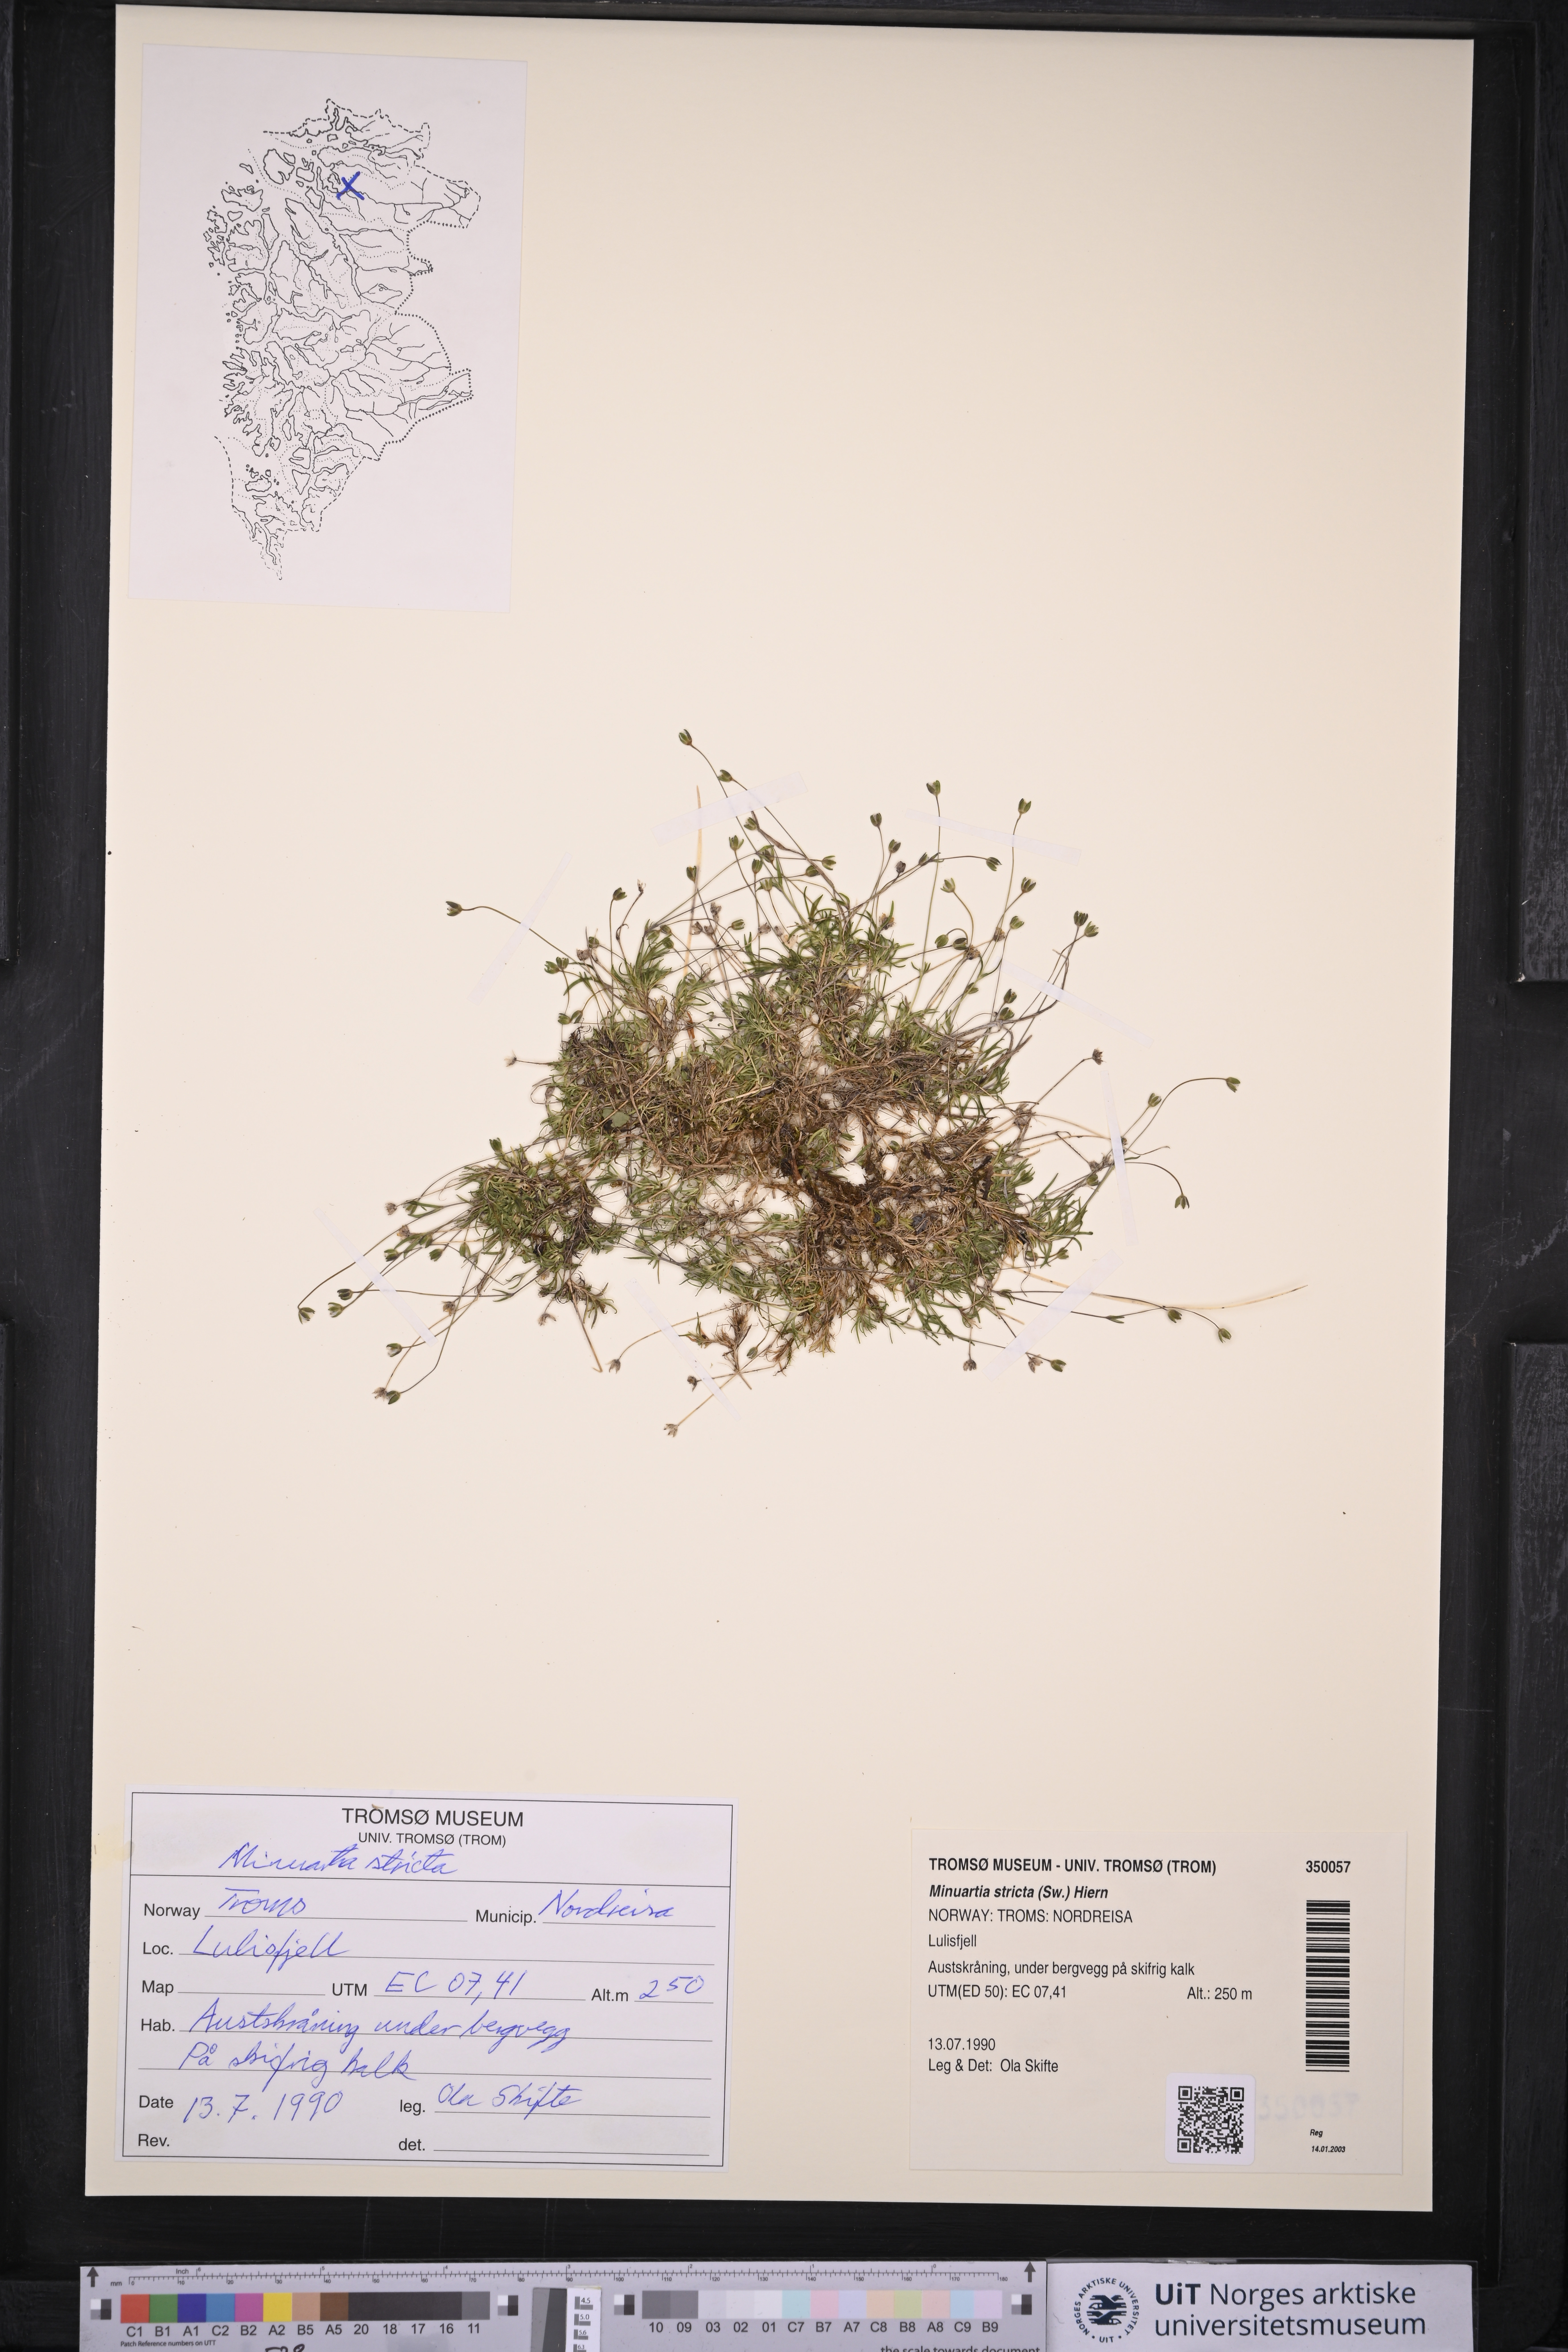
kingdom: Plantae
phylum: Tracheophyta
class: Magnoliopsida
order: Caryophyllales
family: Caryophyllaceae
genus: Sabulina
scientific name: Sabulina stricta
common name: Bog sandwort
